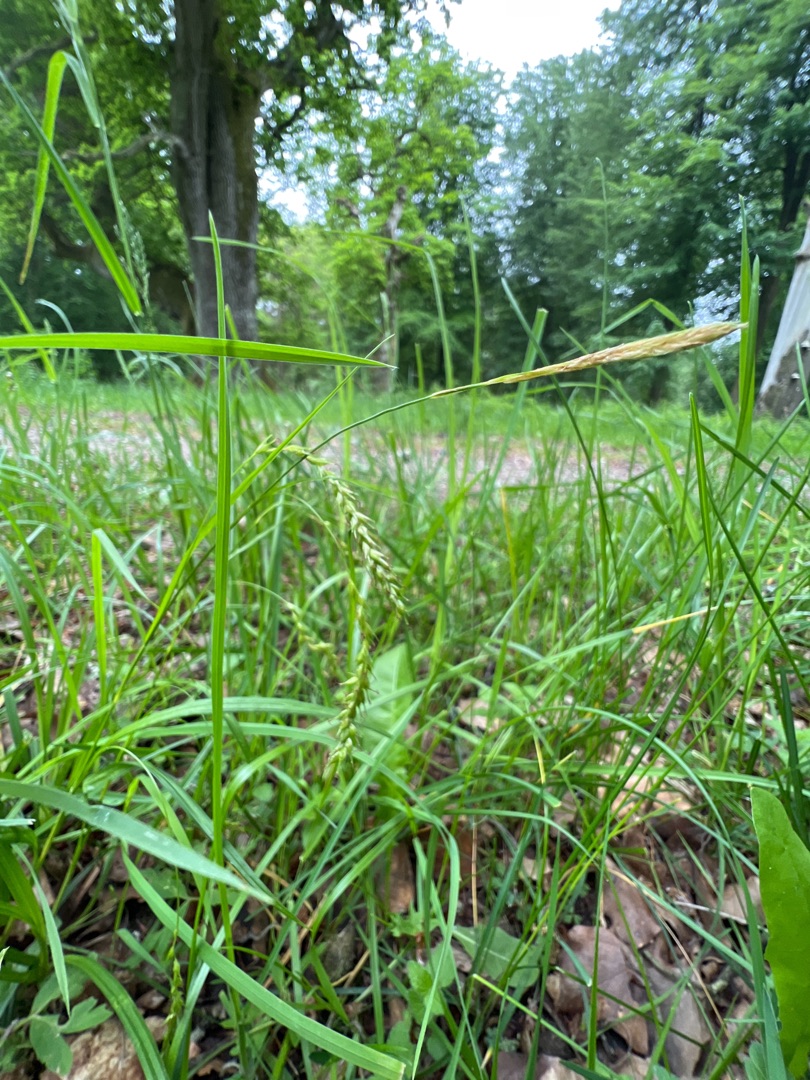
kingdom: Plantae
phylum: Tracheophyta
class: Liliopsida
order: Poales
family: Cyperaceae
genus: Carex
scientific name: Carex sylvatica
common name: Skov-star
